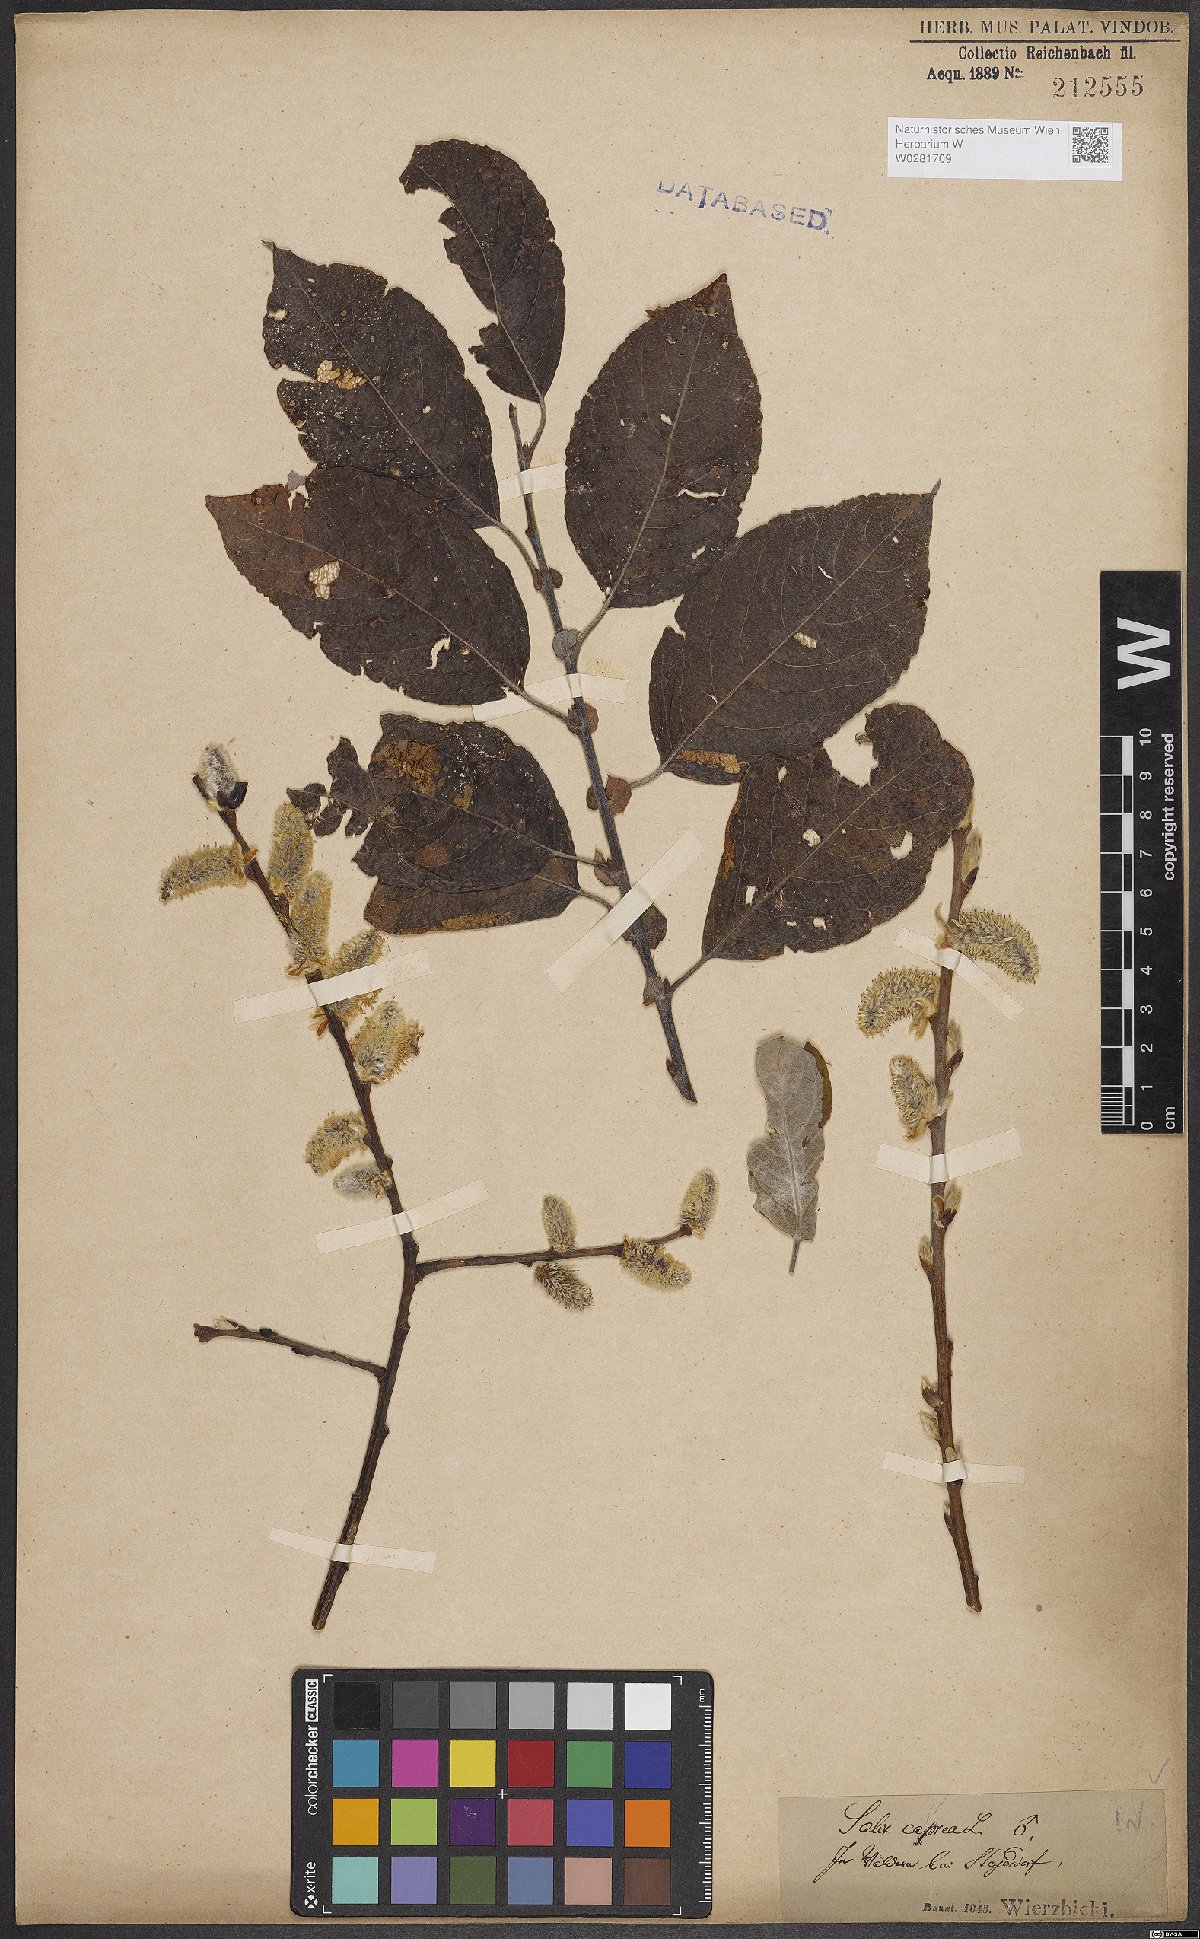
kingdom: Plantae
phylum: Tracheophyta
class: Magnoliopsida
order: Malpighiales
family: Salicaceae
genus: Salix
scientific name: Salix caprea
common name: Goat willow
